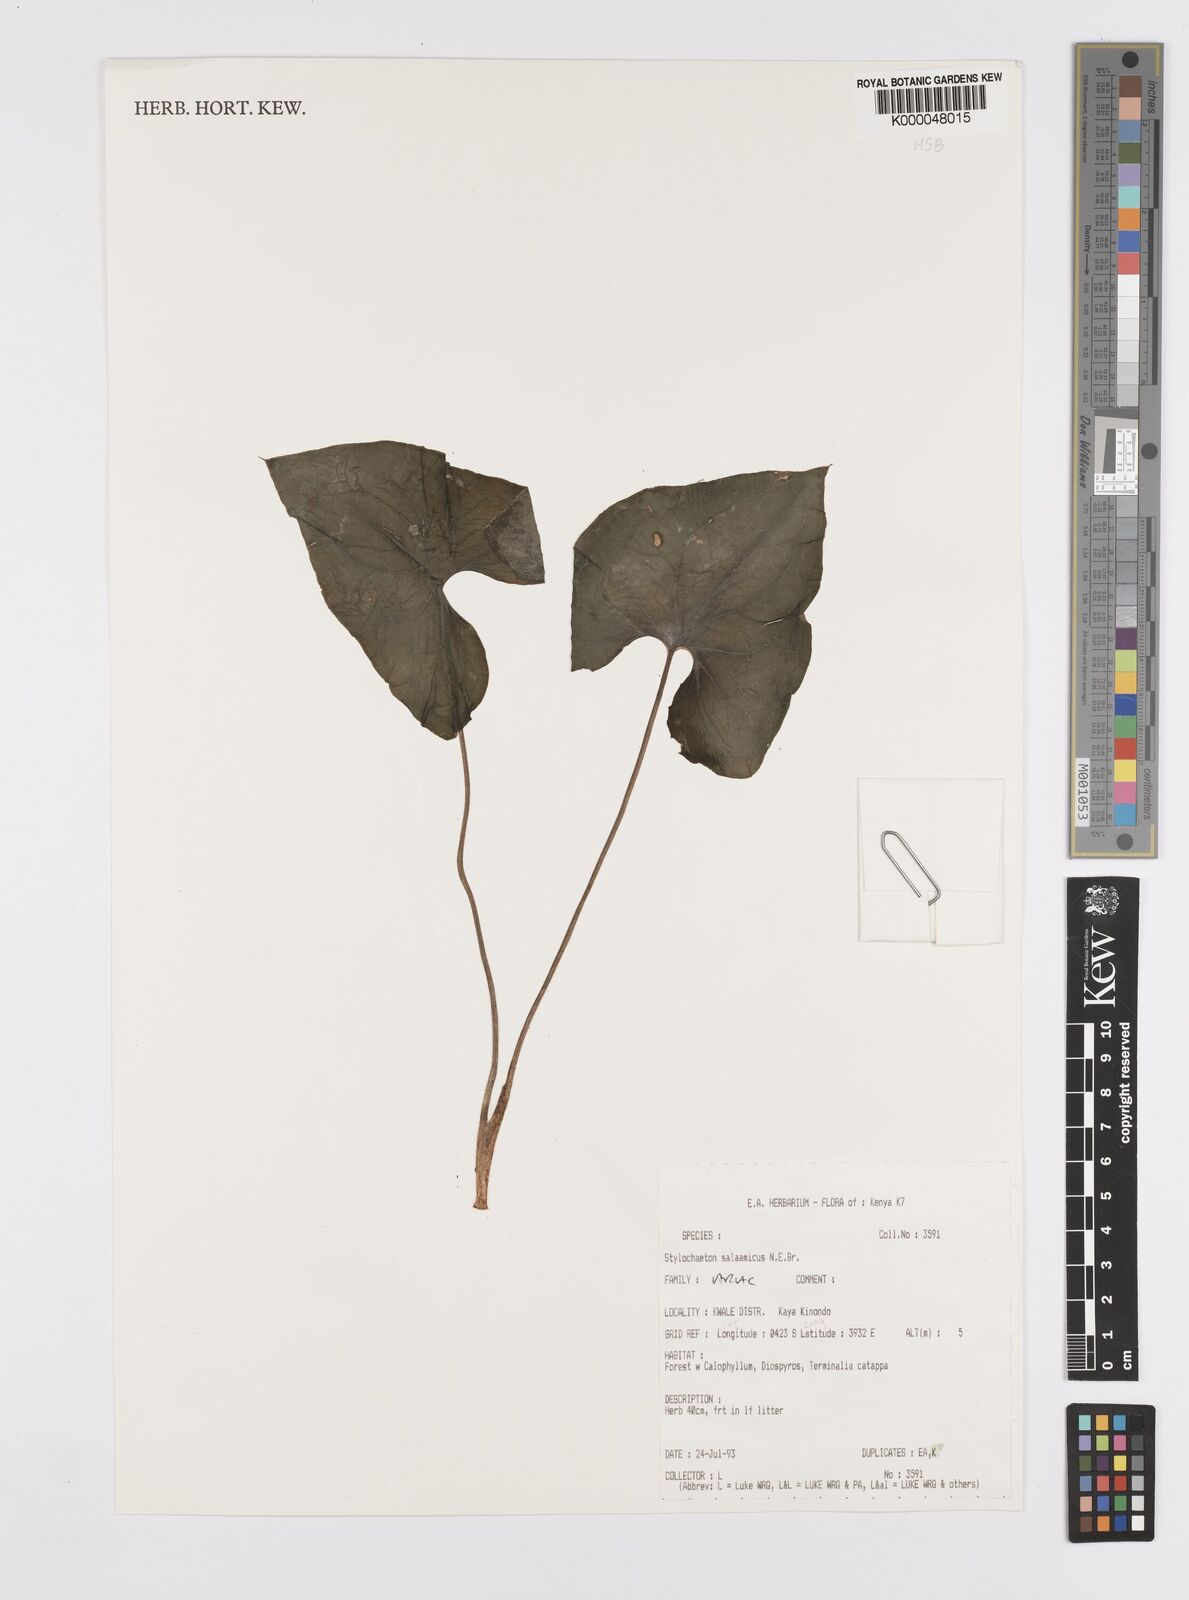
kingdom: Plantae
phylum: Tracheophyta
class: Liliopsida
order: Alismatales
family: Araceae
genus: Stylochaeton
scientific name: Stylochaeton salaamicum
